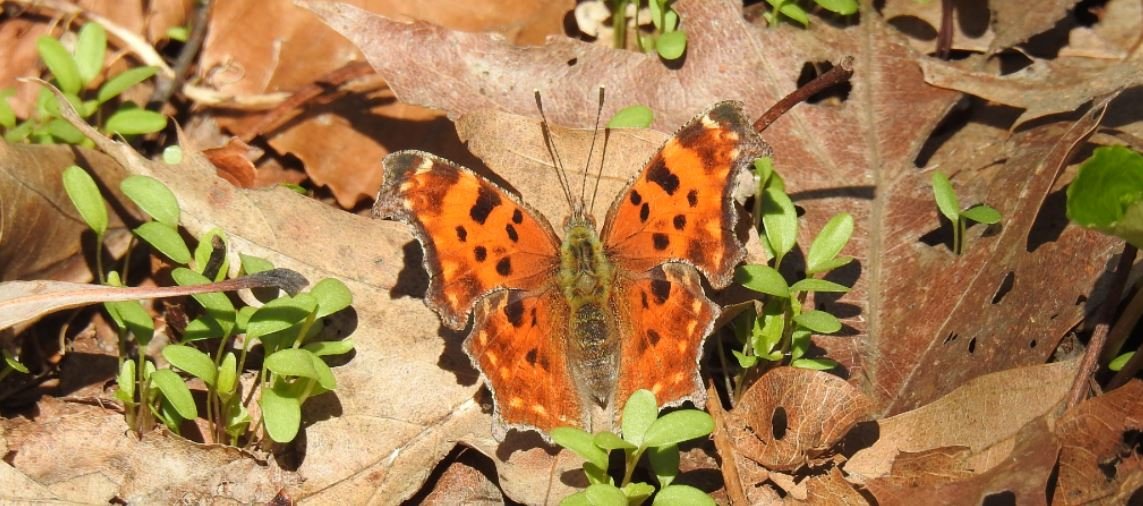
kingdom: Animalia
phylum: Arthropoda
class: Insecta
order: Lepidoptera
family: Nymphalidae
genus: Polygonia
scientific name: Polygonia comma
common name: Eastern Comma
